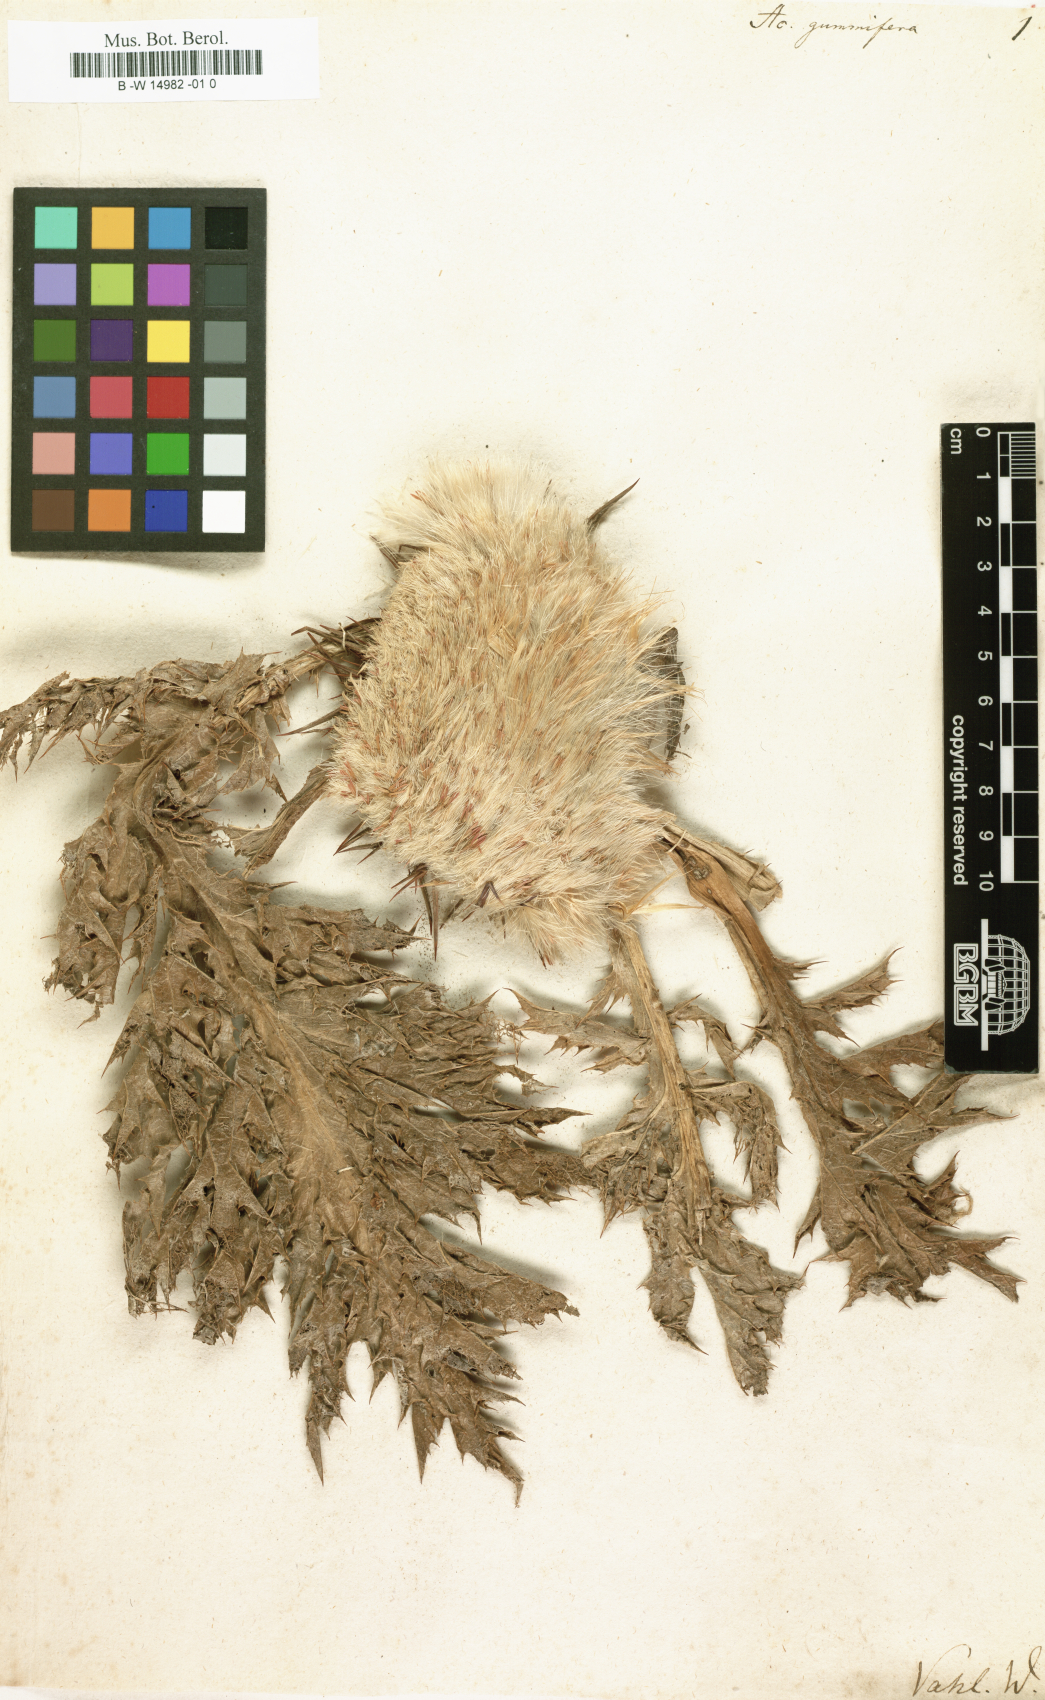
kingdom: Plantae
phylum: Tracheophyta
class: Magnoliopsida
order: Asterales
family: Asteraceae
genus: Chamaeleon
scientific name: Chamaeleon gummifer
